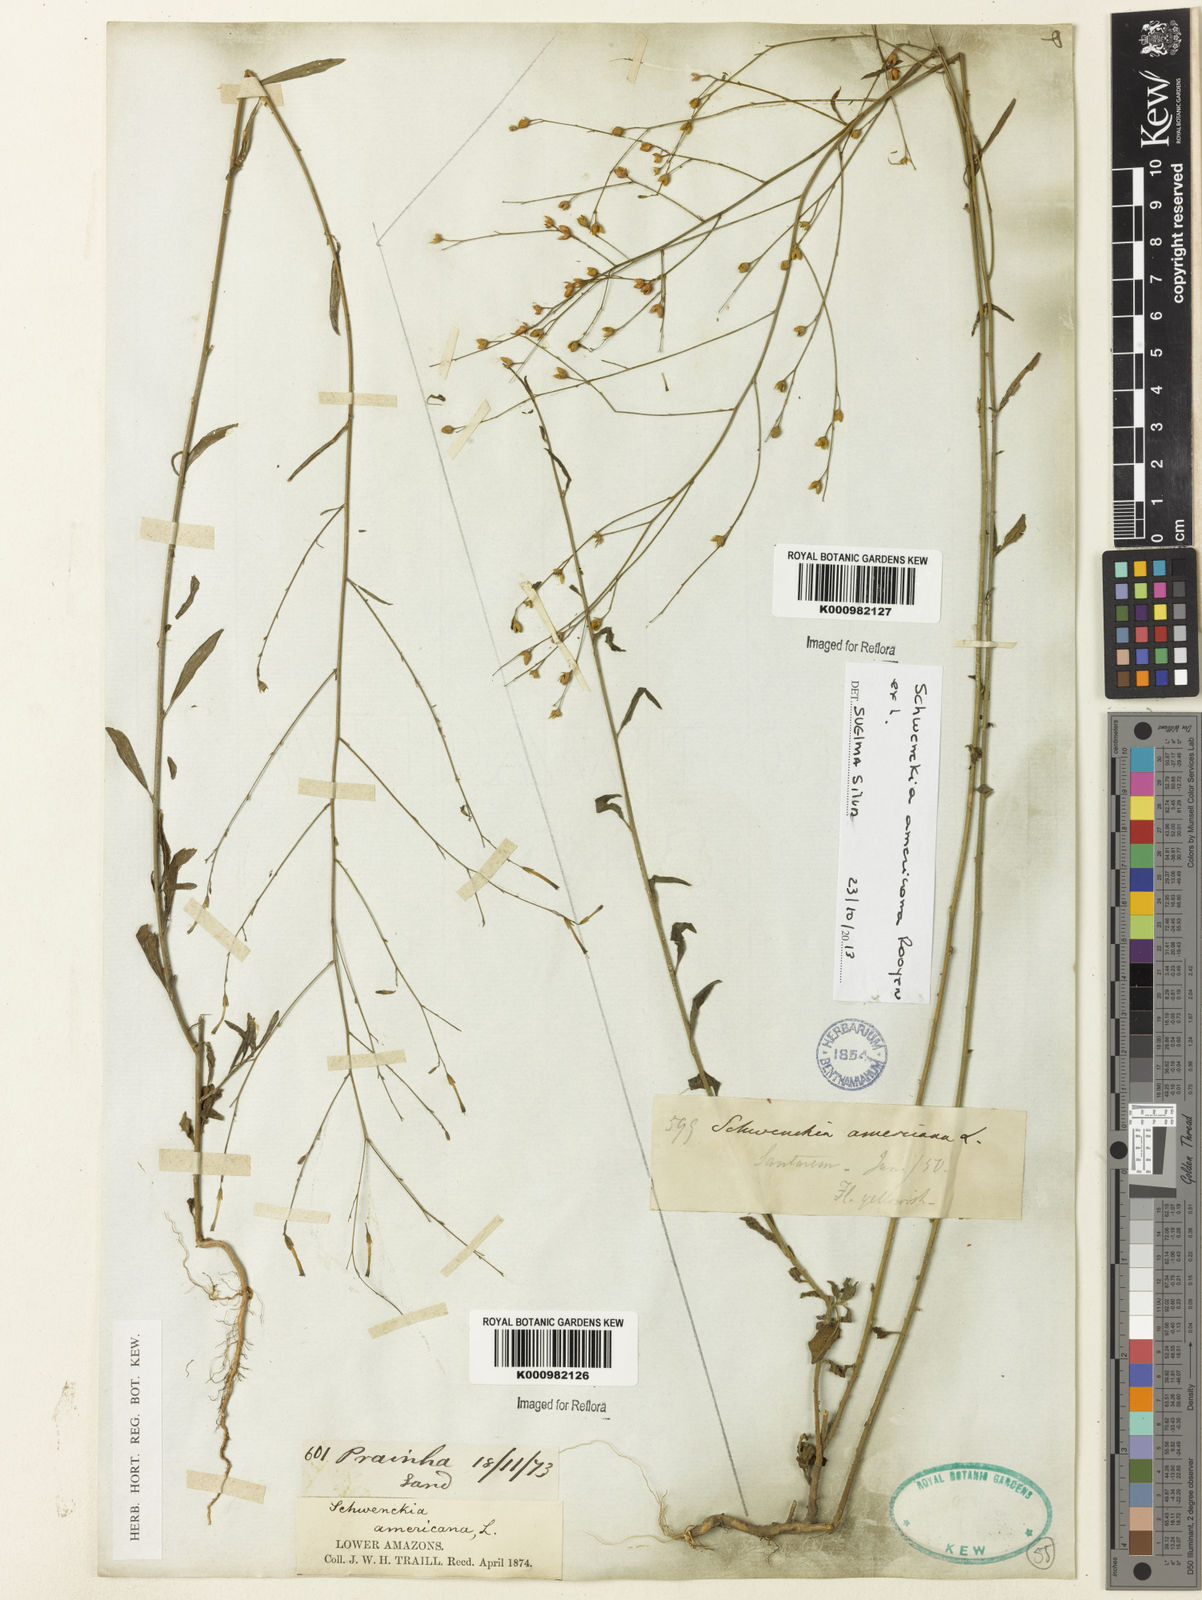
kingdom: Plantae
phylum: Tracheophyta
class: Magnoliopsida
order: Solanales
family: Solanaceae
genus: Schwenckia
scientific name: Schwenckia americana
